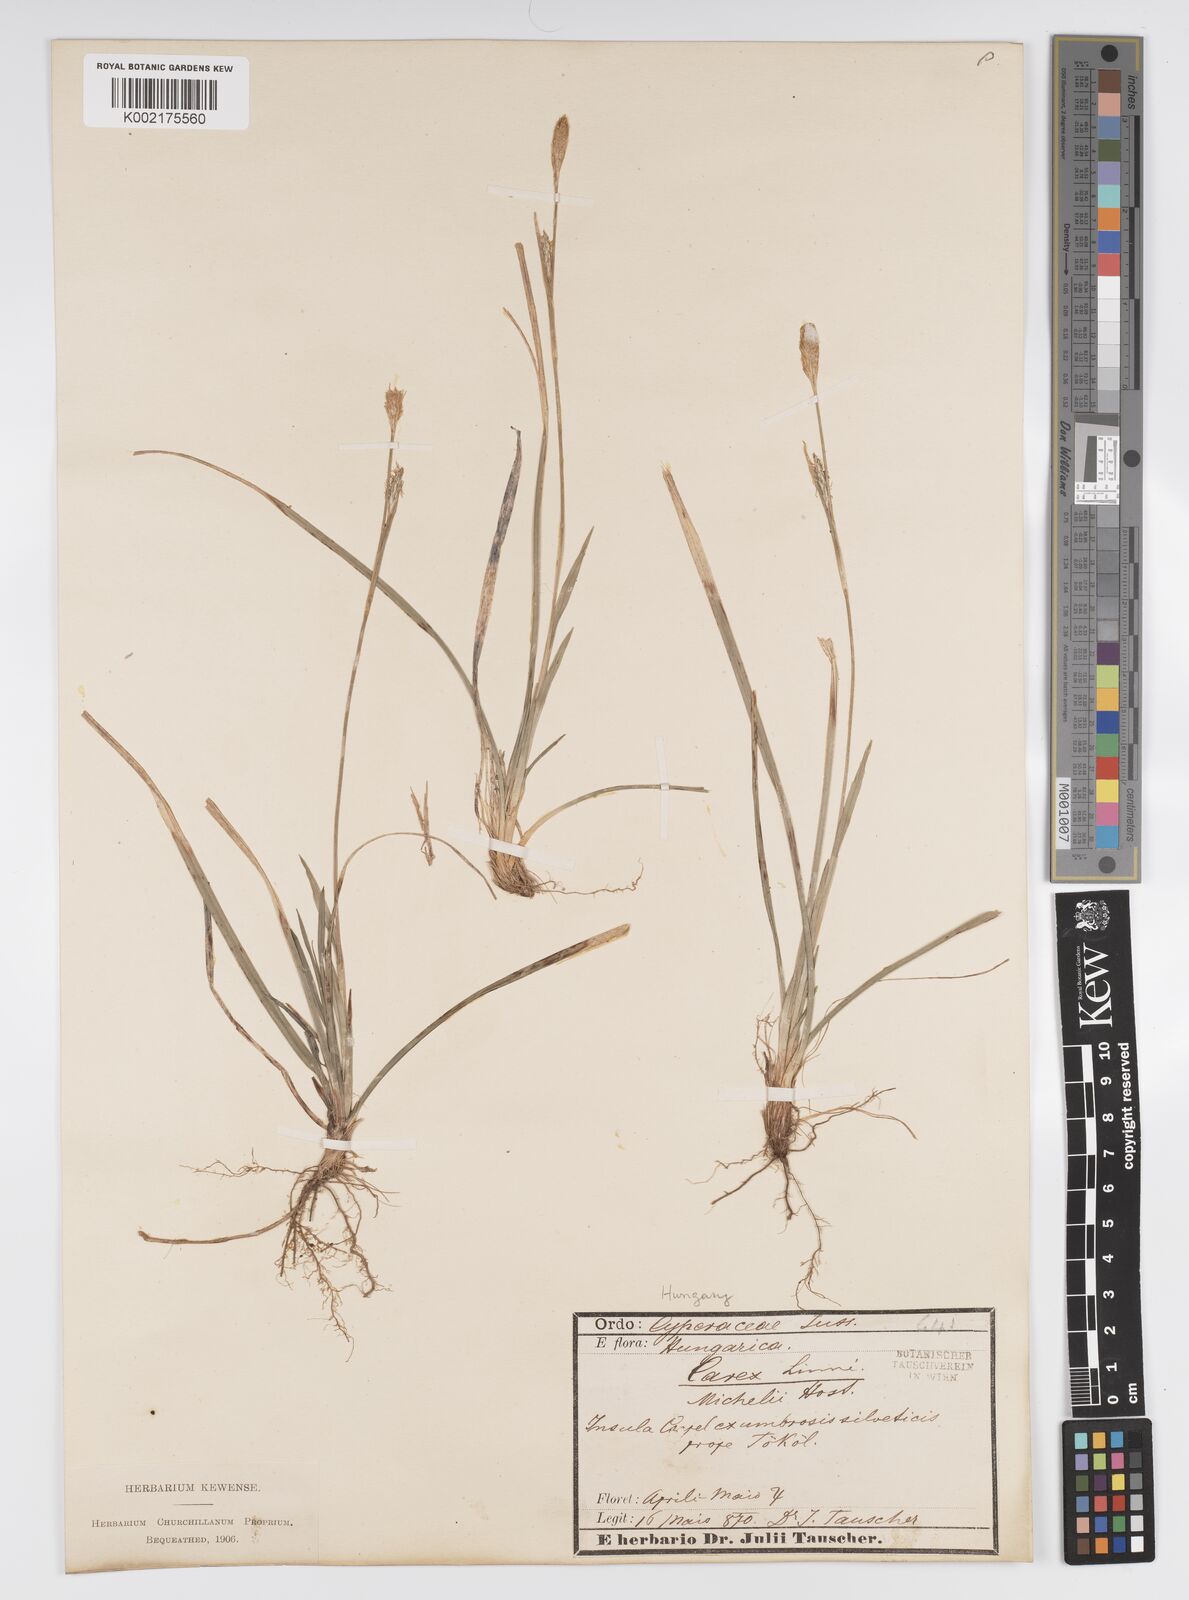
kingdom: Plantae
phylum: Tracheophyta
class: Liliopsida
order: Poales
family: Cyperaceae
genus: Carex
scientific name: Carex michelii
